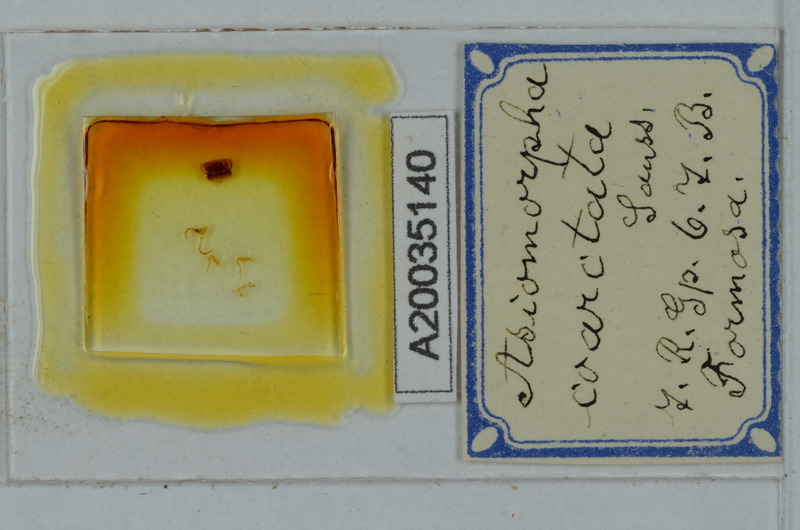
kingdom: Animalia
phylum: Arthropoda
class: Diplopoda
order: Polydesmida
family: Paradoxosomatidae
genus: Asiomorpha
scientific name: Asiomorpha coarctata
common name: Millipede
